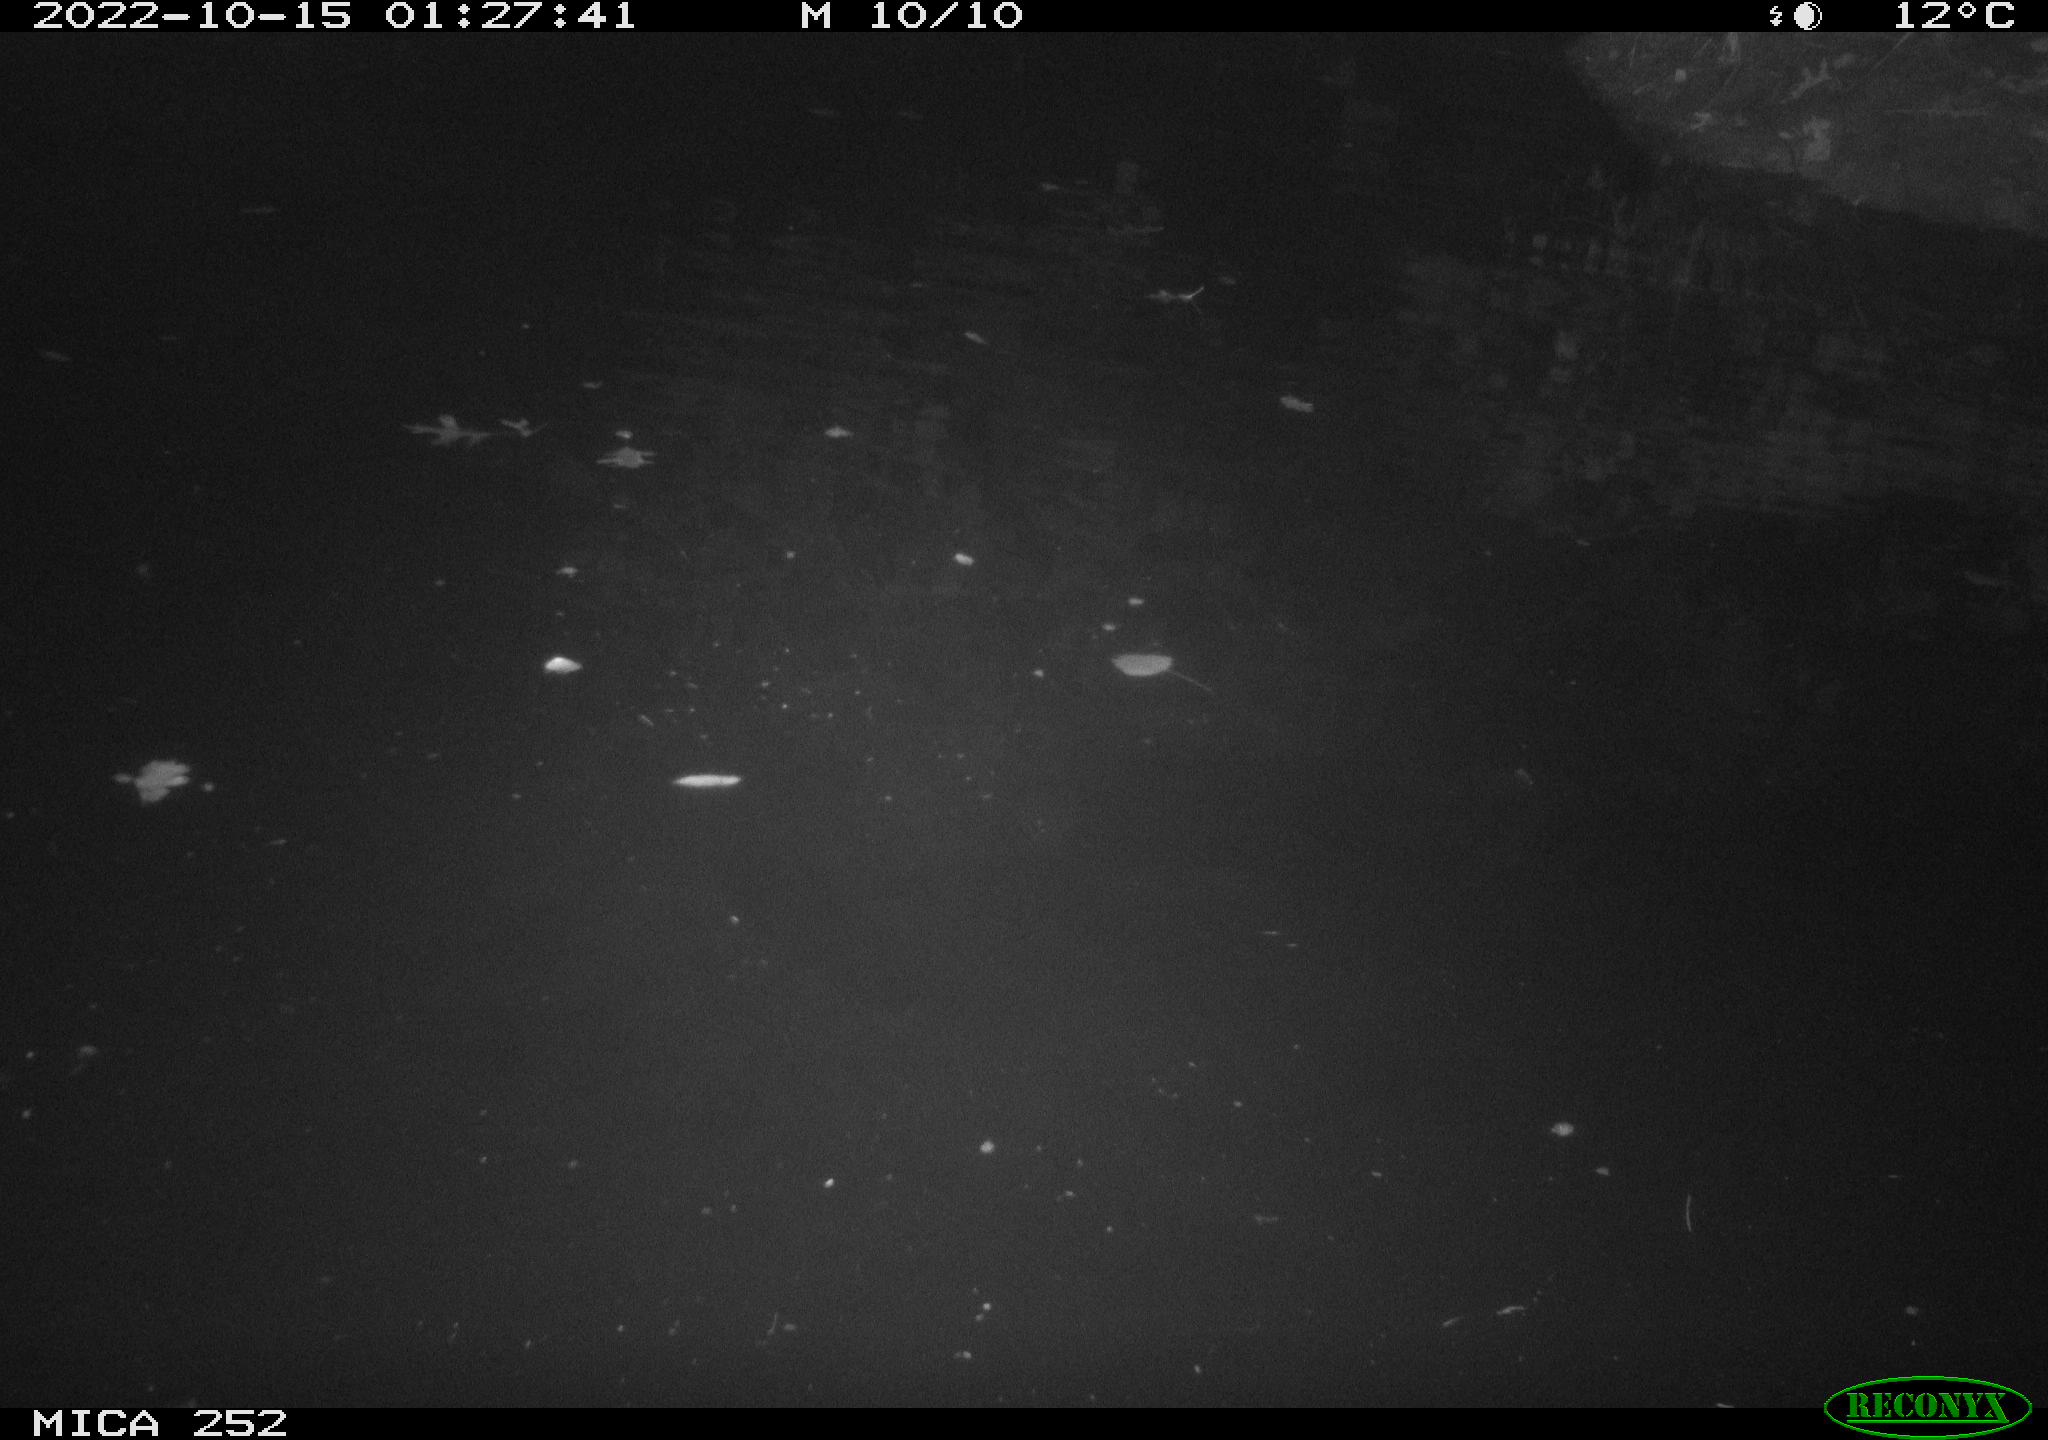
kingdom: Animalia
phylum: Chordata
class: Mammalia
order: Rodentia
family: Castoridae
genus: Castor
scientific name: Castor fiber
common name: Eurasian beaver
